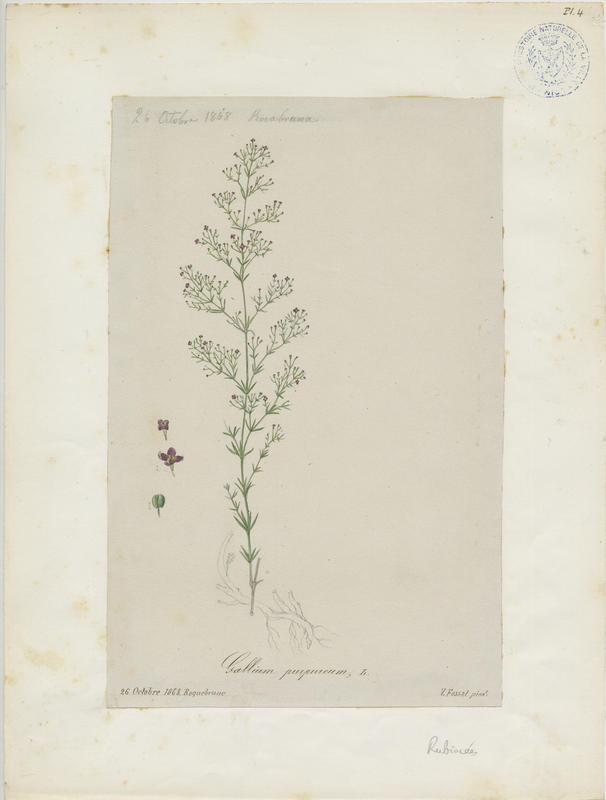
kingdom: Plantae
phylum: Tracheophyta
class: Magnoliopsida
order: Gentianales
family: Rubiaceae
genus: Thliphthisa
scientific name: Thliphthisa purpurea
